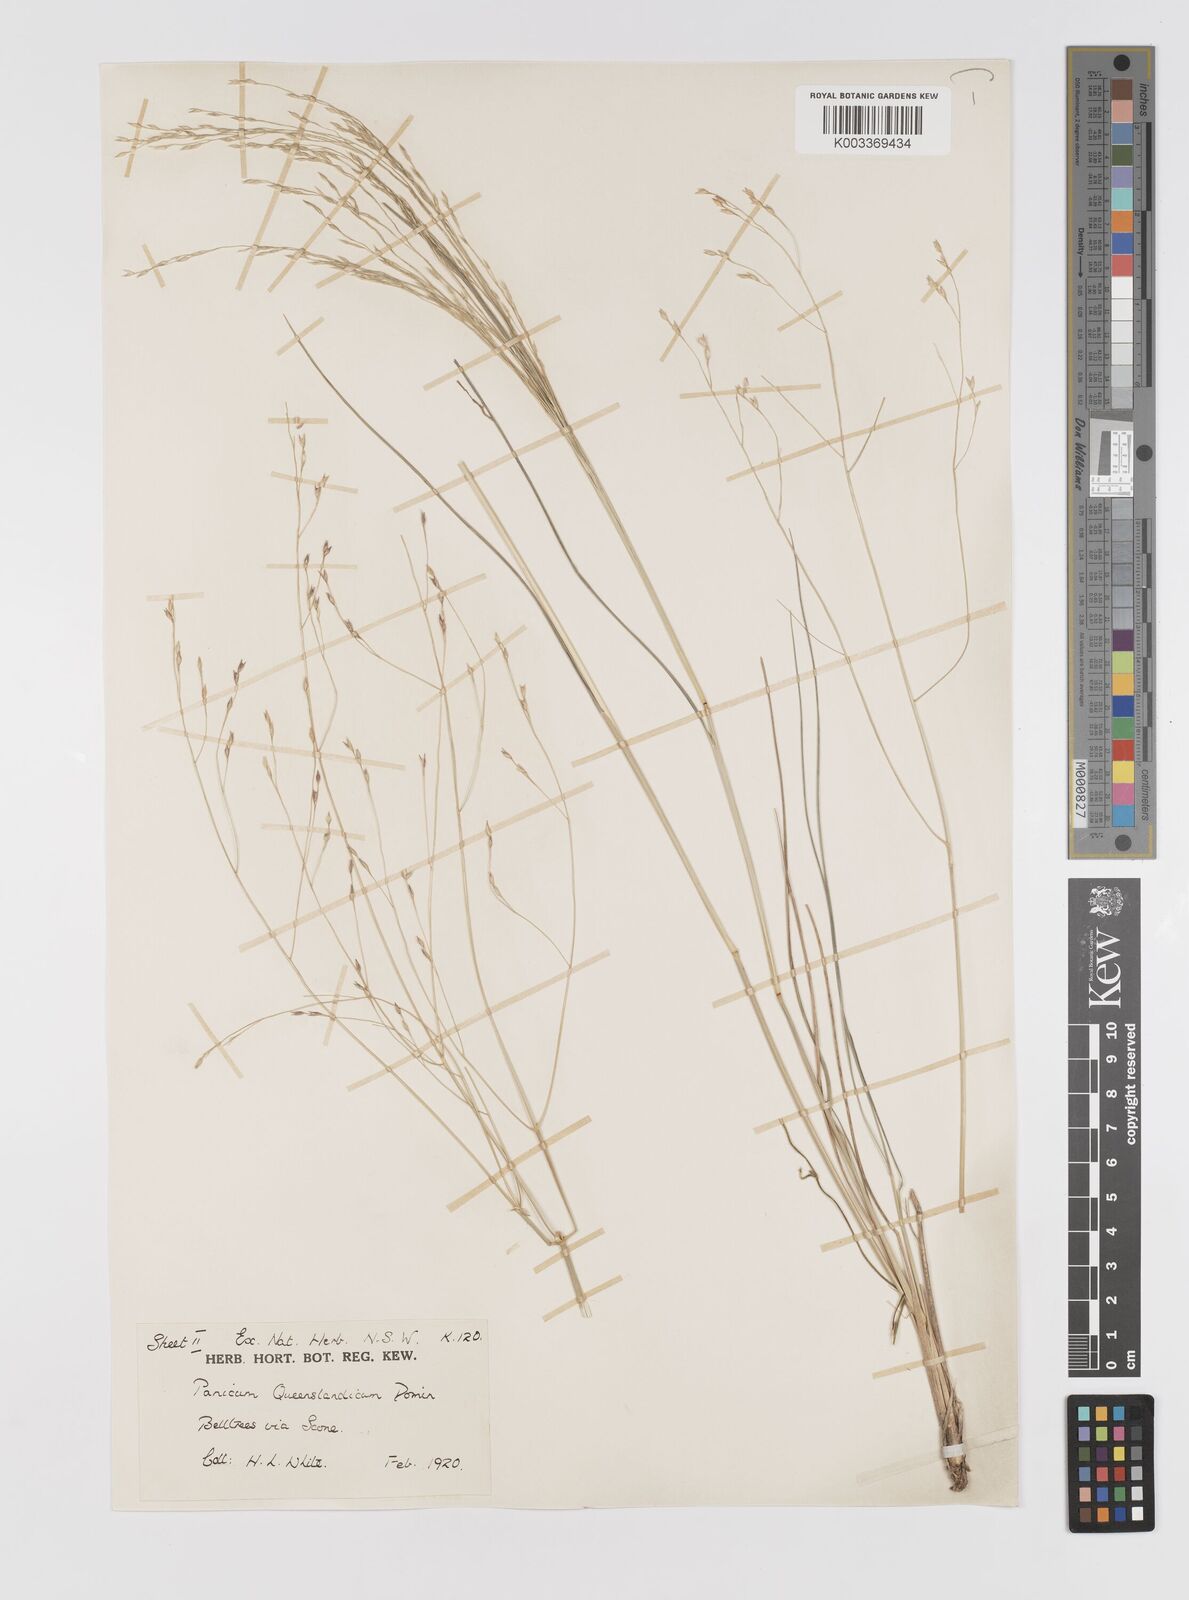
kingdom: Plantae
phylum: Tracheophyta
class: Liliopsida
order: Poales
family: Poaceae
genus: Panicum
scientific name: Panicum queenslandicum
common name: Yabila grass
